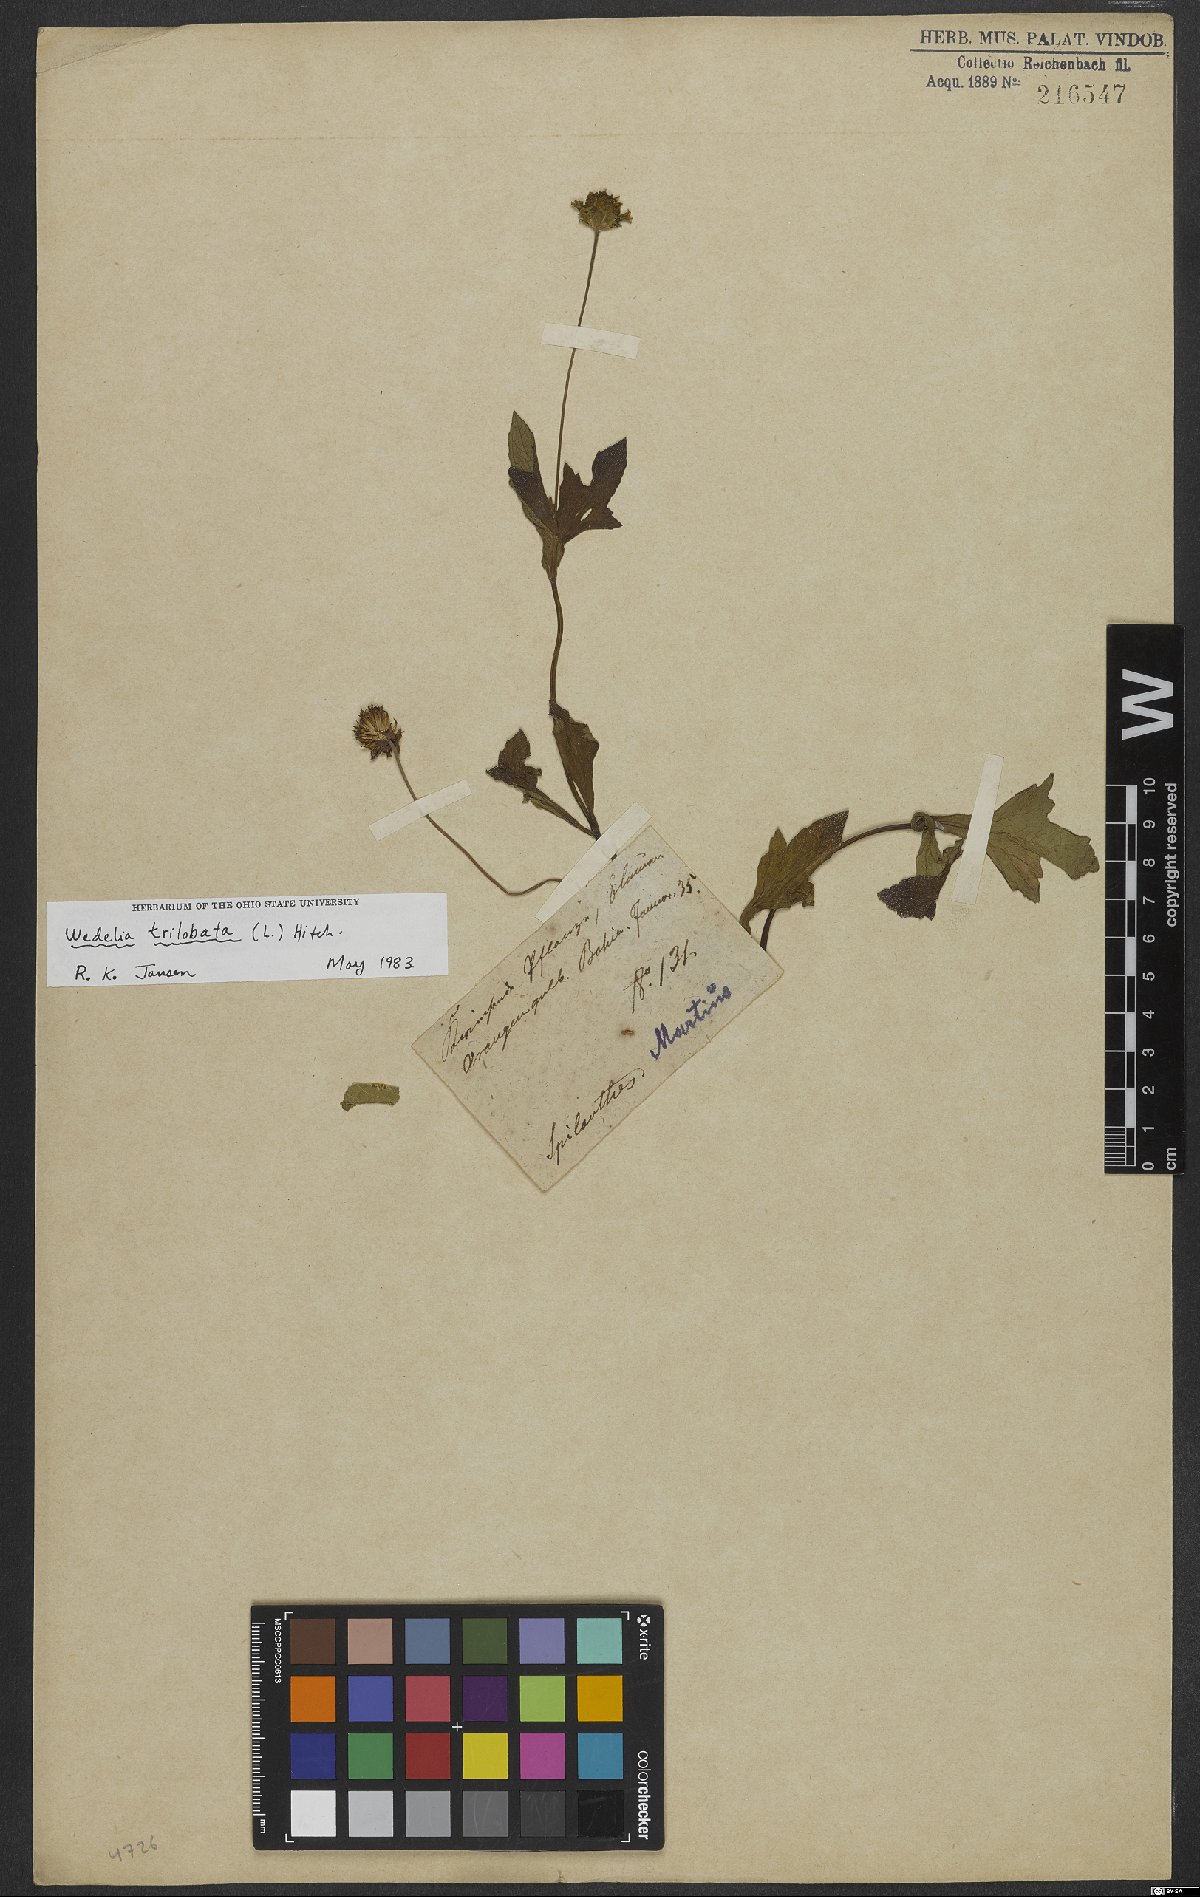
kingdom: Plantae
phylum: Tracheophyta
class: Magnoliopsida
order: Asterales
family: Asteraceae
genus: Sphagneticola
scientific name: Sphagneticola trilobata
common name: Bay biscayne creeping-oxeye
